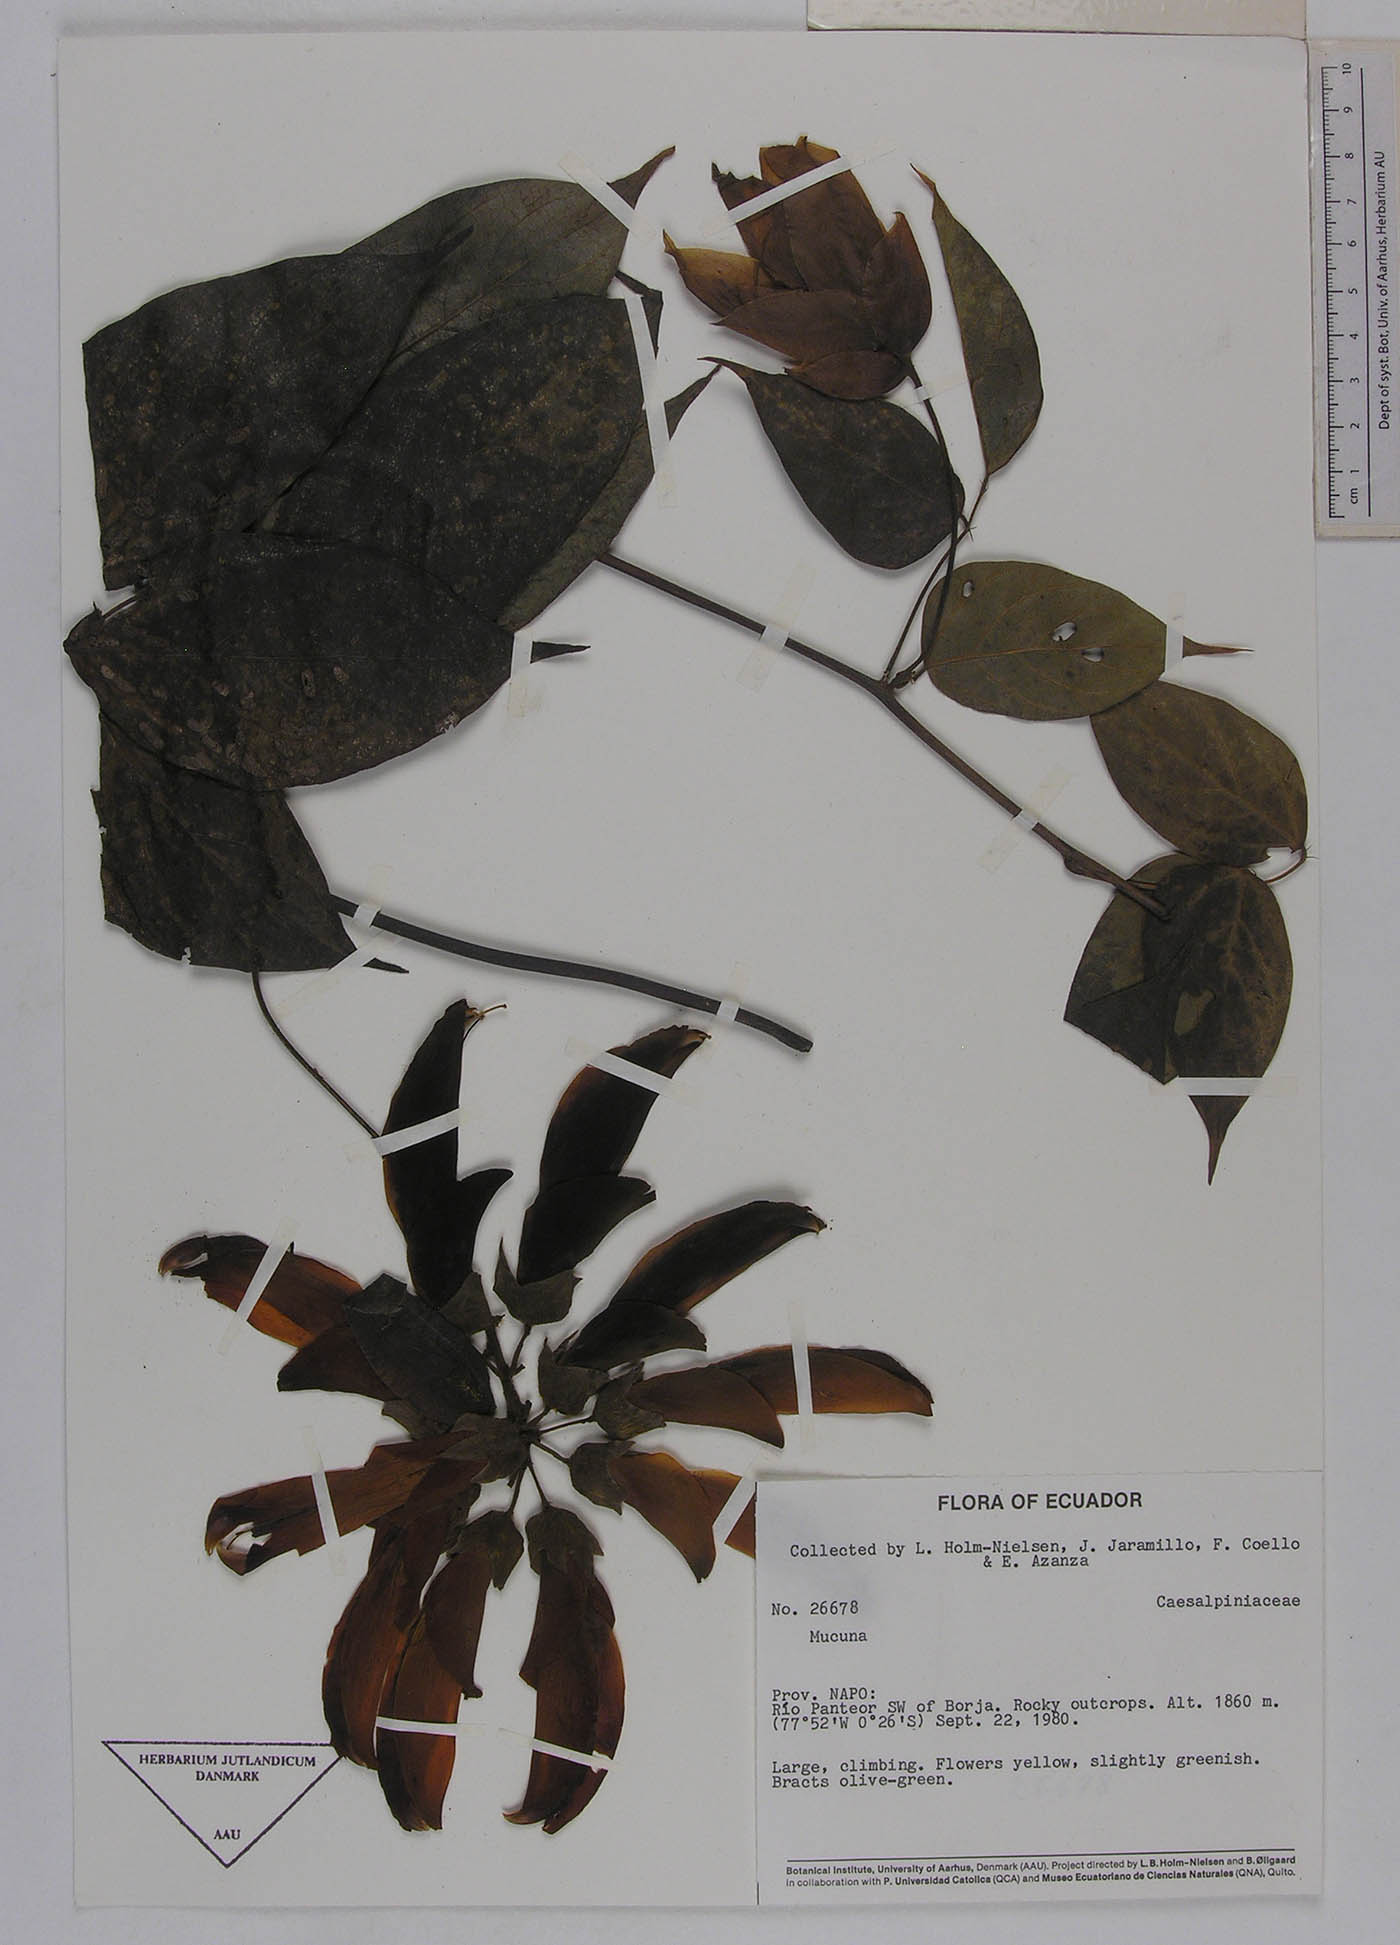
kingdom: Plantae
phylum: Tracheophyta
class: Magnoliopsida
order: Fabales
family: Fabaceae
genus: Mucuna
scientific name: Mucuna ecuatoriana
